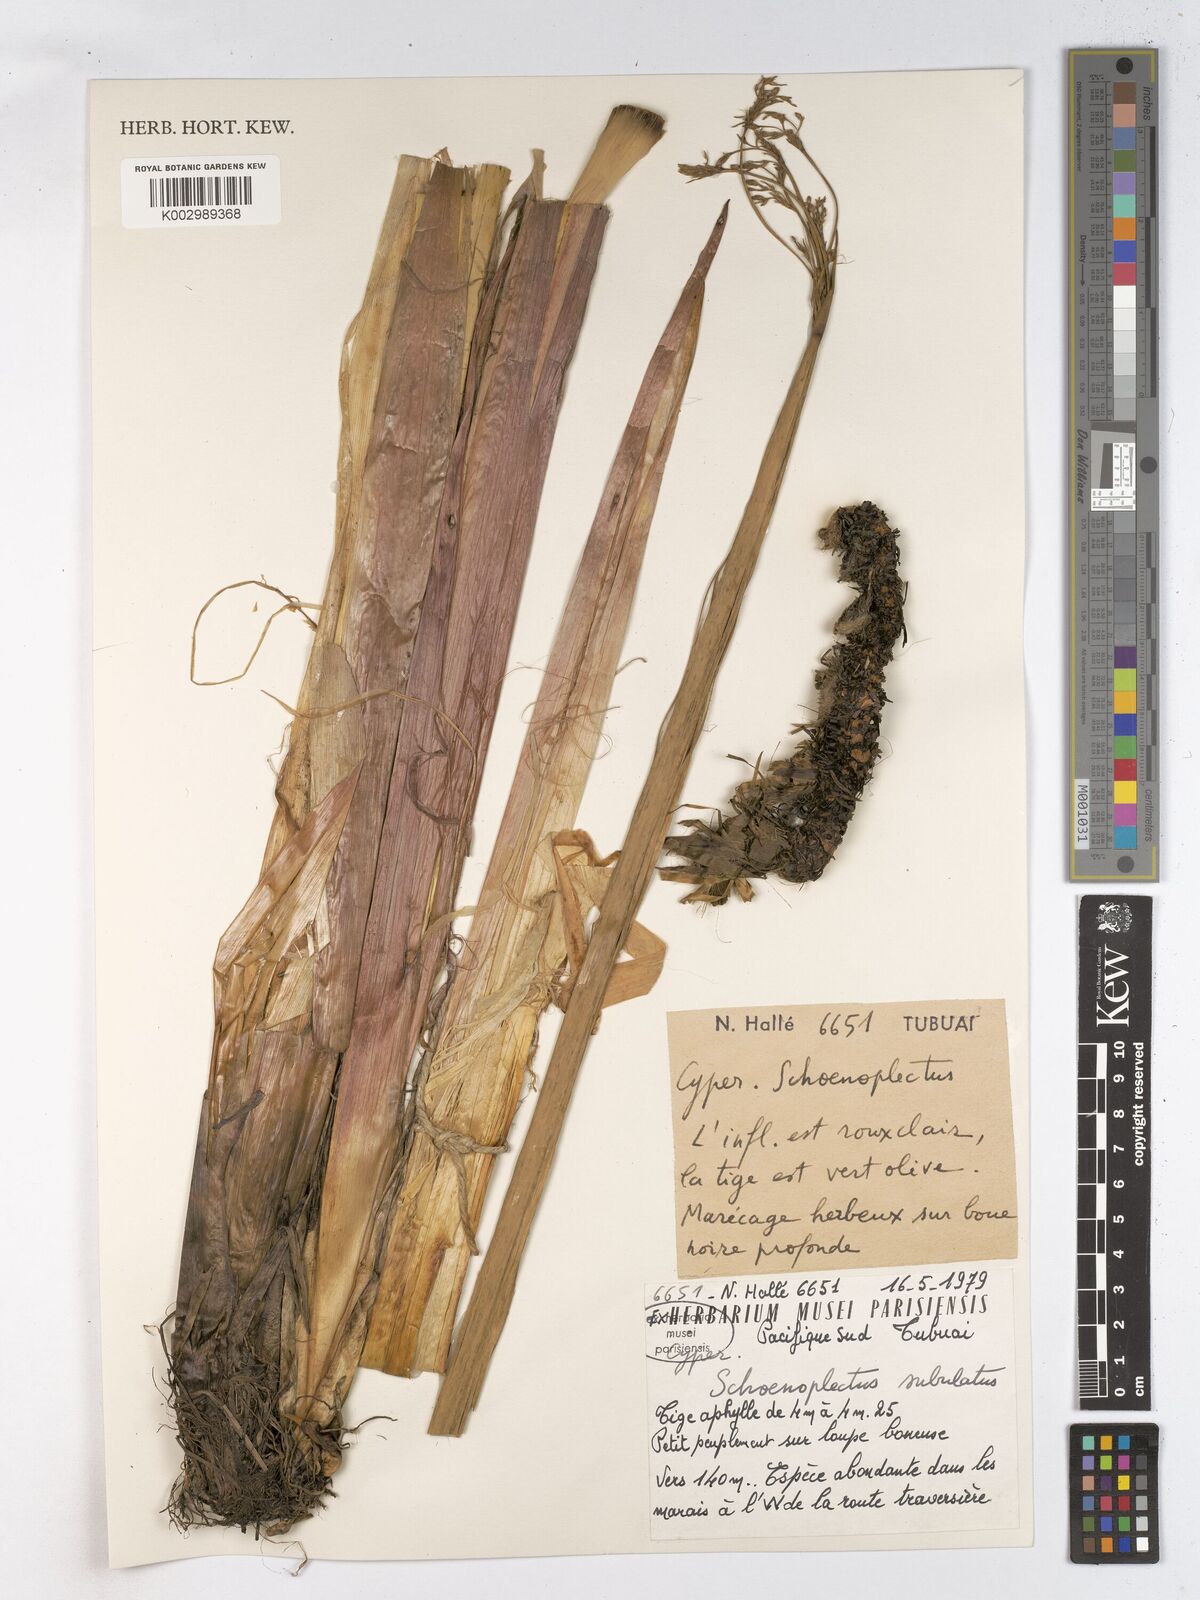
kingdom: Plantae
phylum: Tracheophyta
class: Liliopsida
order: Poales
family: Cyperaceae
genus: Schoenoplectus
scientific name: Schoenoplectus lacustris
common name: Common club-rush
